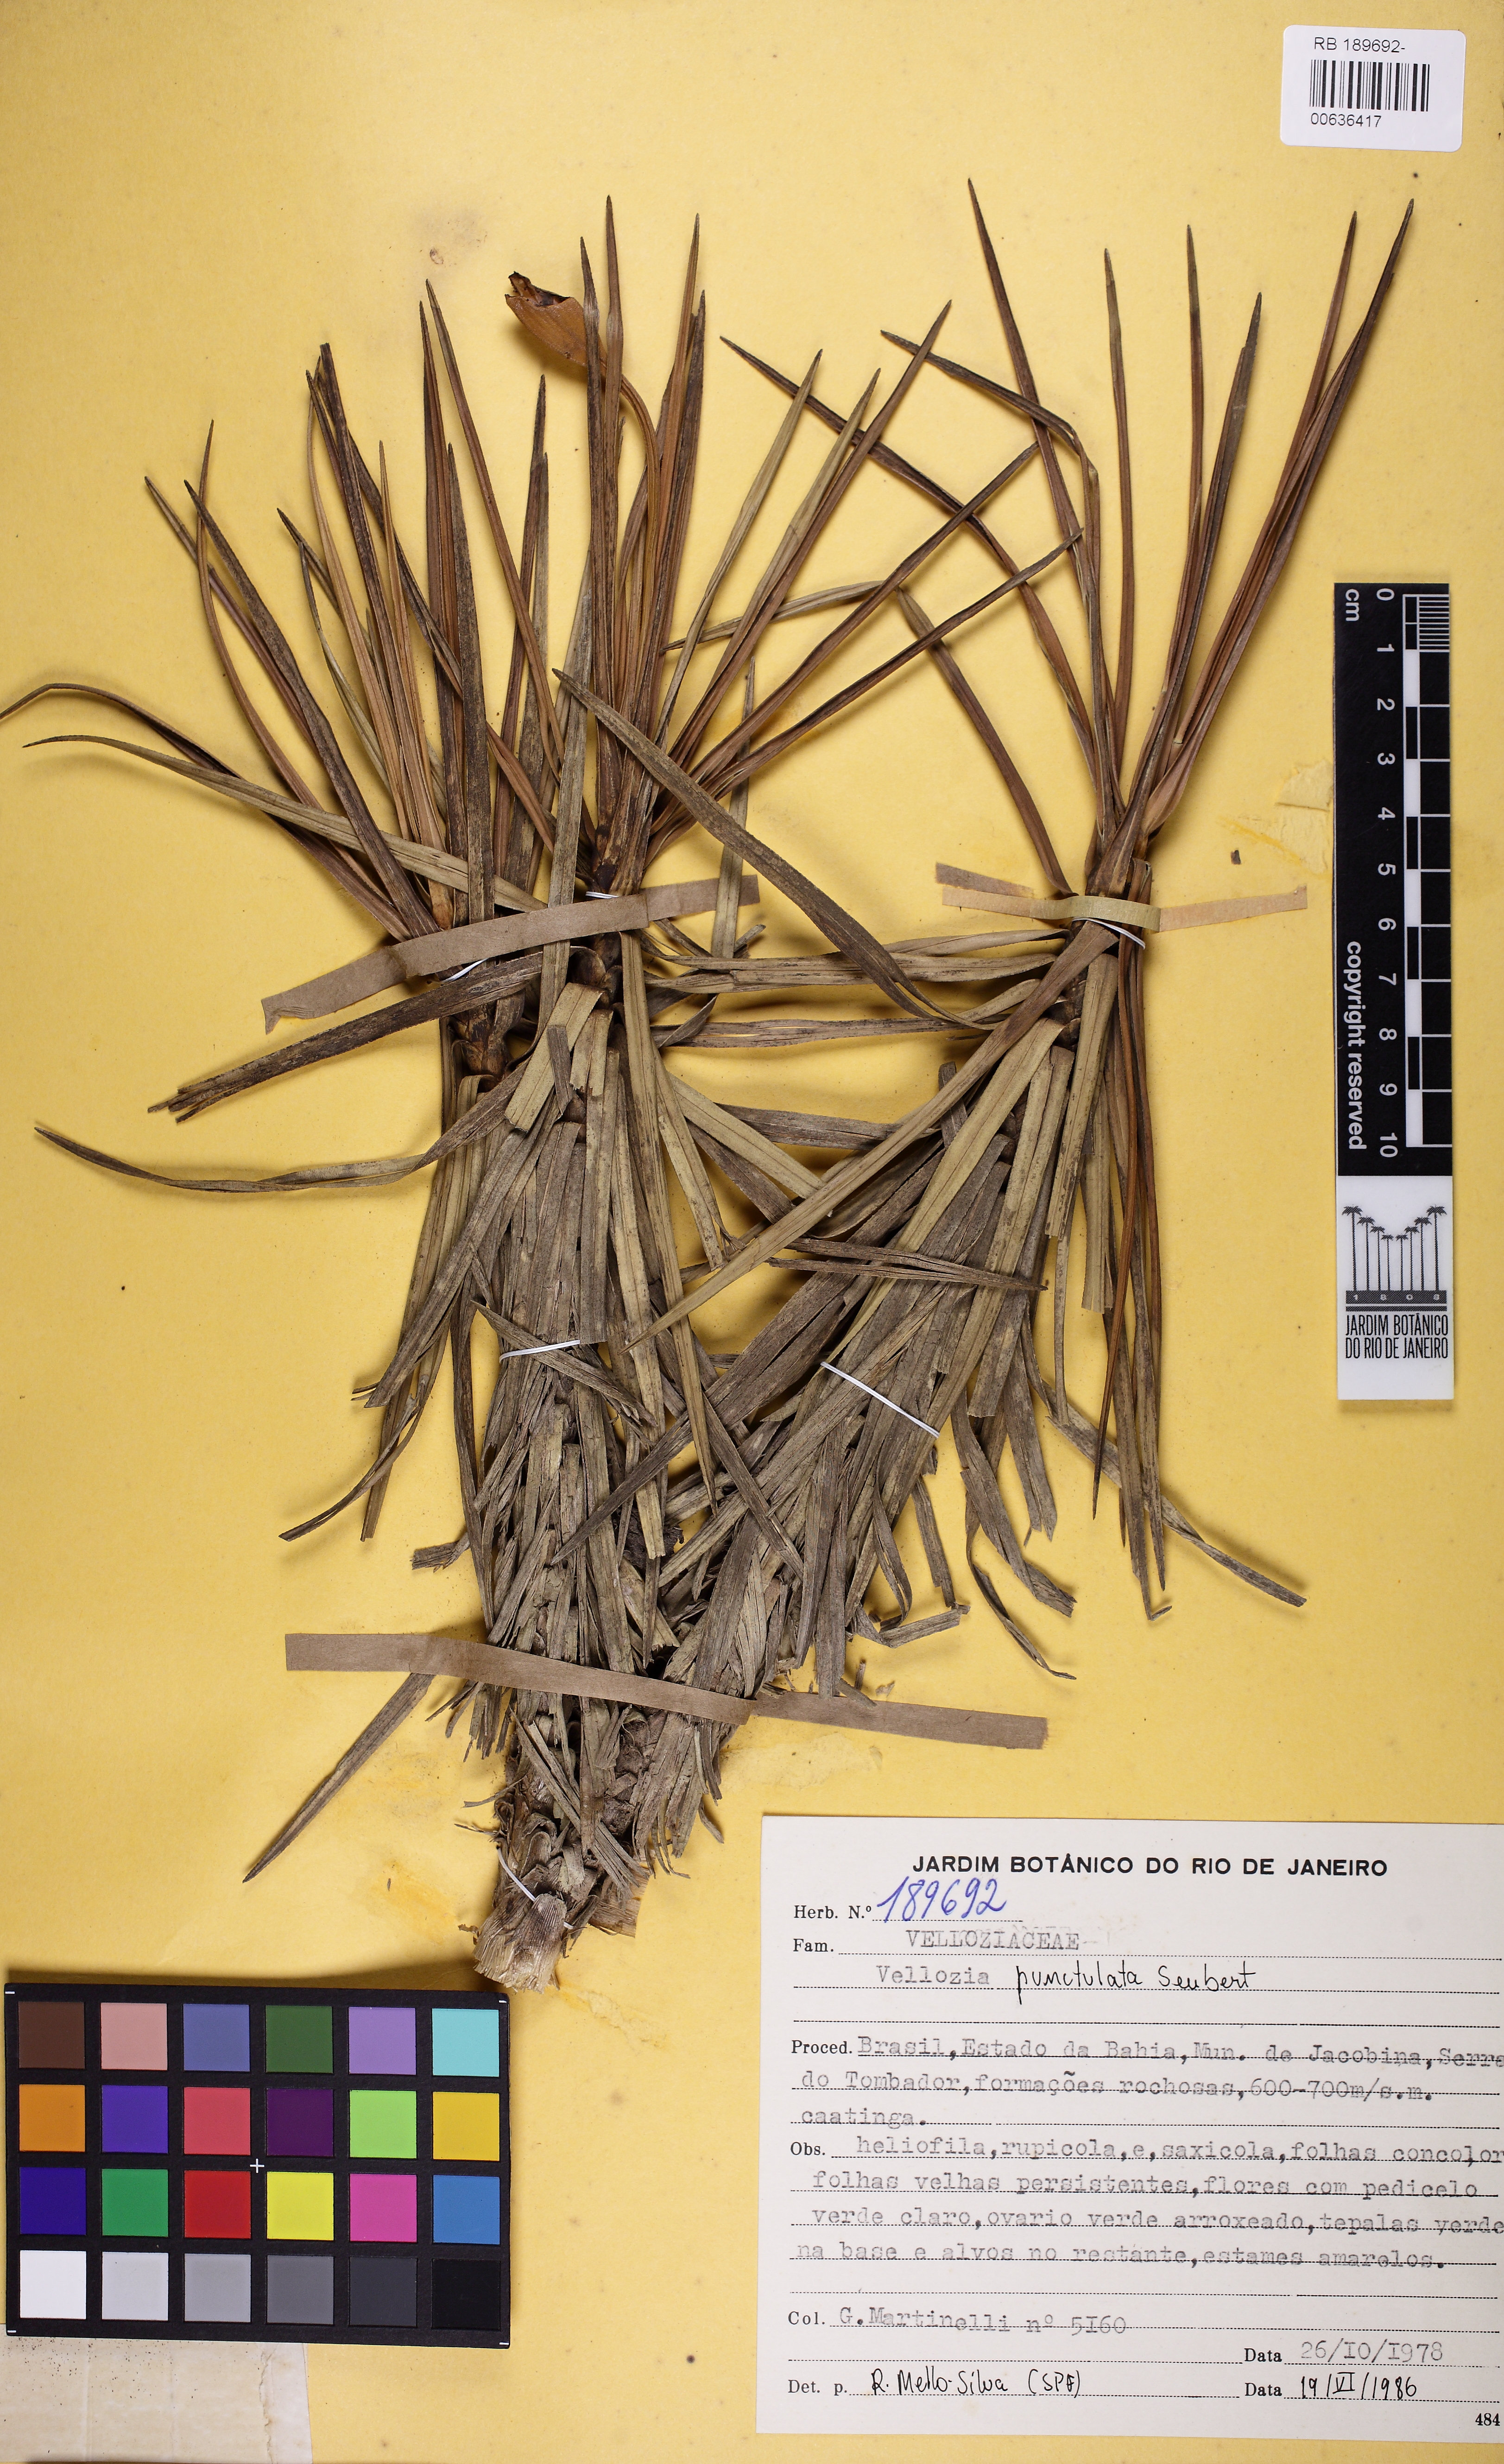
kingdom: Plantae
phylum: Tracheophyta
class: Liliopsida
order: Pandanales
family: Velloziaceae
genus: Vellozia
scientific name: Vellozia punctulata
